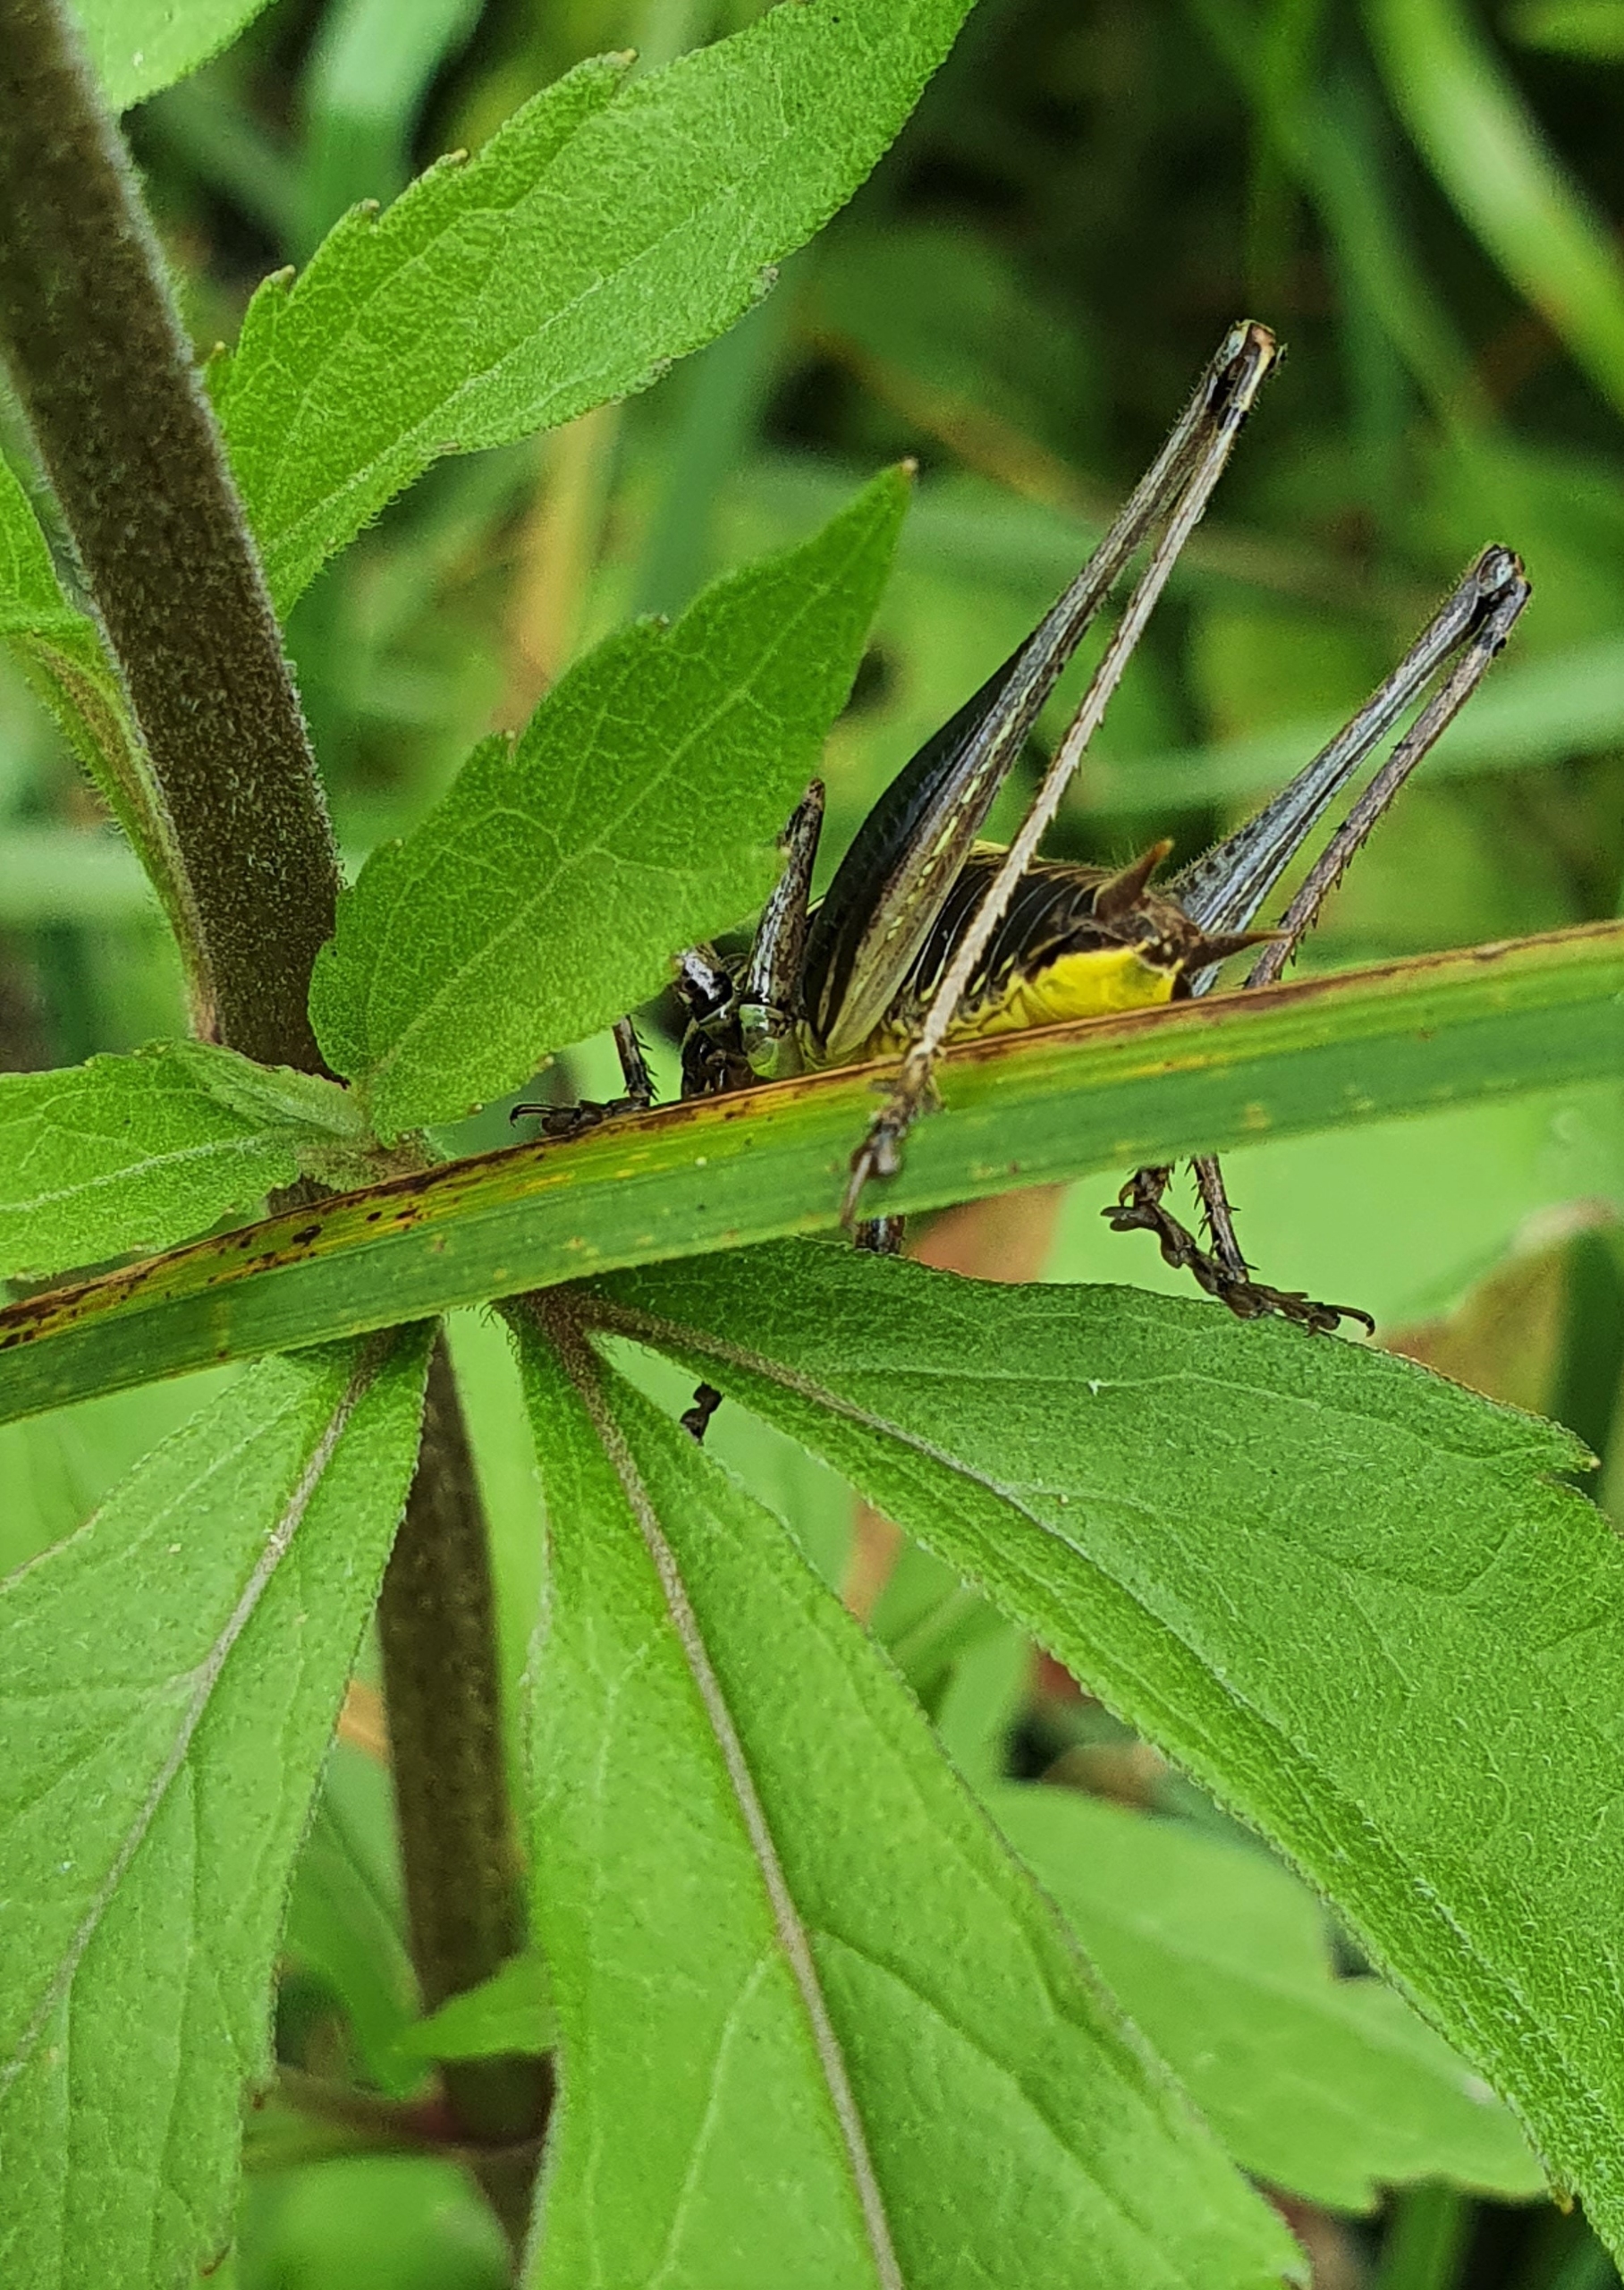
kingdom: Animalia
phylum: Arthropoda
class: Insecta
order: Orthoptera
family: Tettigoniidae
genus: Pholidoptera
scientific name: Pholidoptera griseoaptera
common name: Buskgræshoppe
